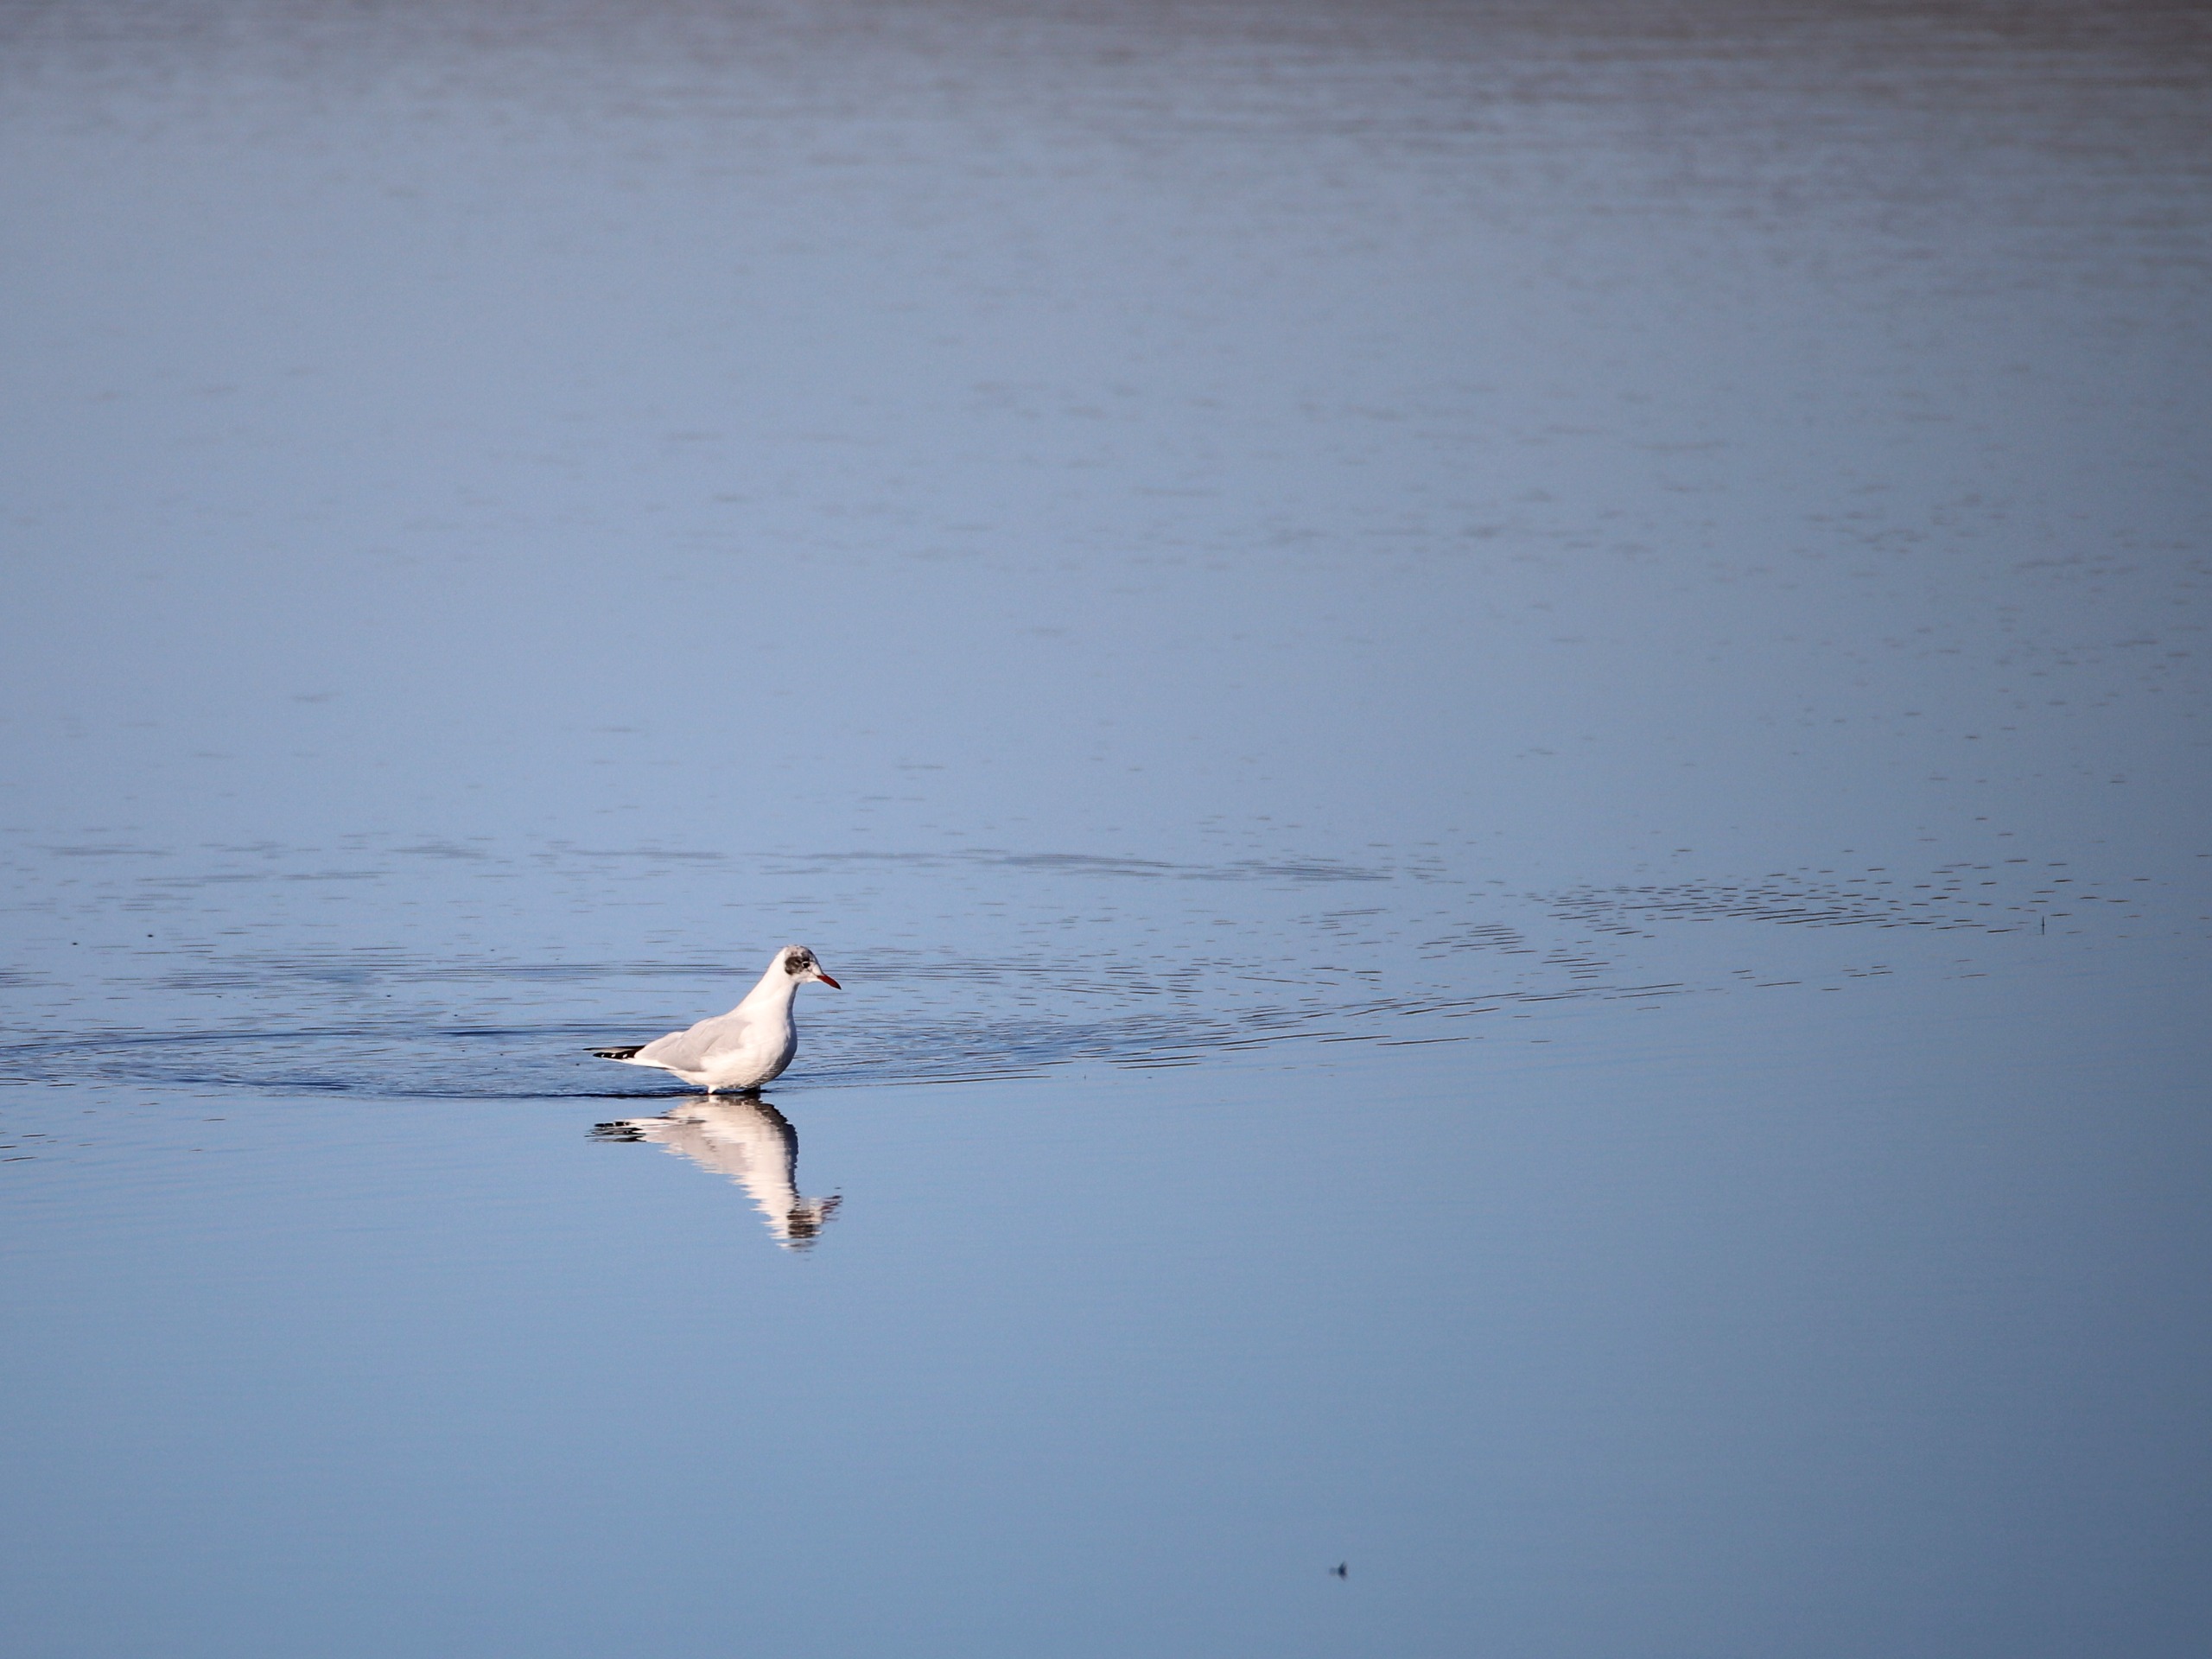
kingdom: Animalia
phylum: Chordata
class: Aves
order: Charadriiformes
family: Laridae
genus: Chroicocephalus
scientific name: Chroicocephalus ridibundus
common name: Hættemåge
